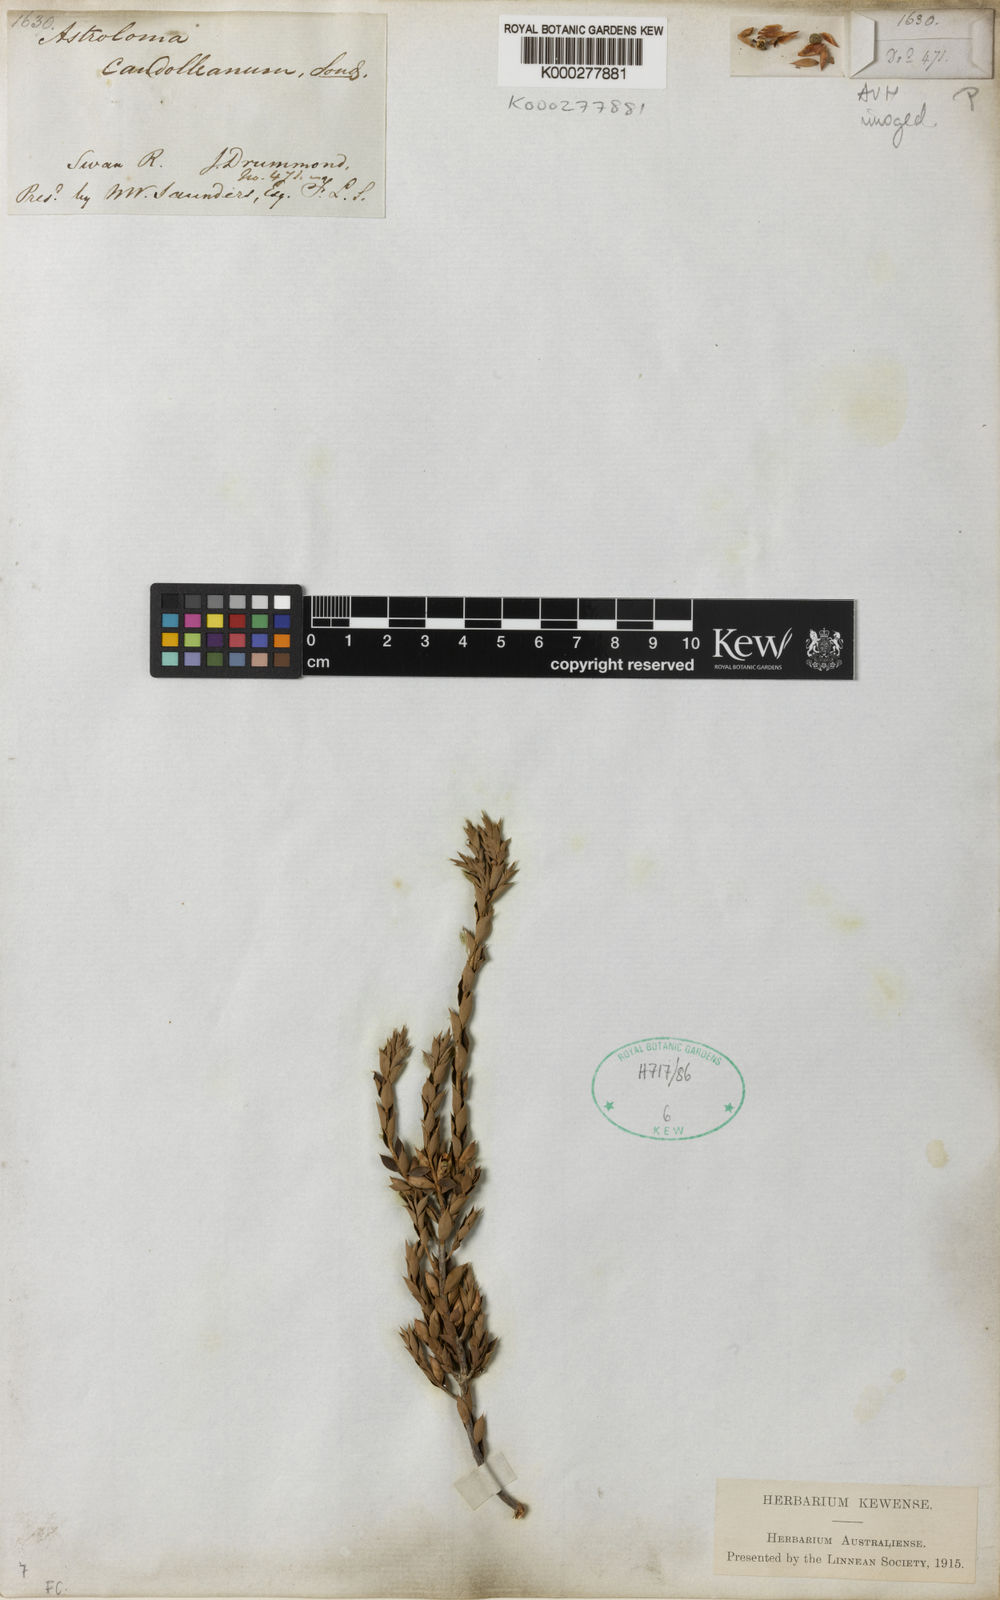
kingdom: Plantae
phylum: Tracheophyta
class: Magnoliopsida
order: Ericales
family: Ericaceae
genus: Styphelia
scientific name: Styphelia serratifolia
